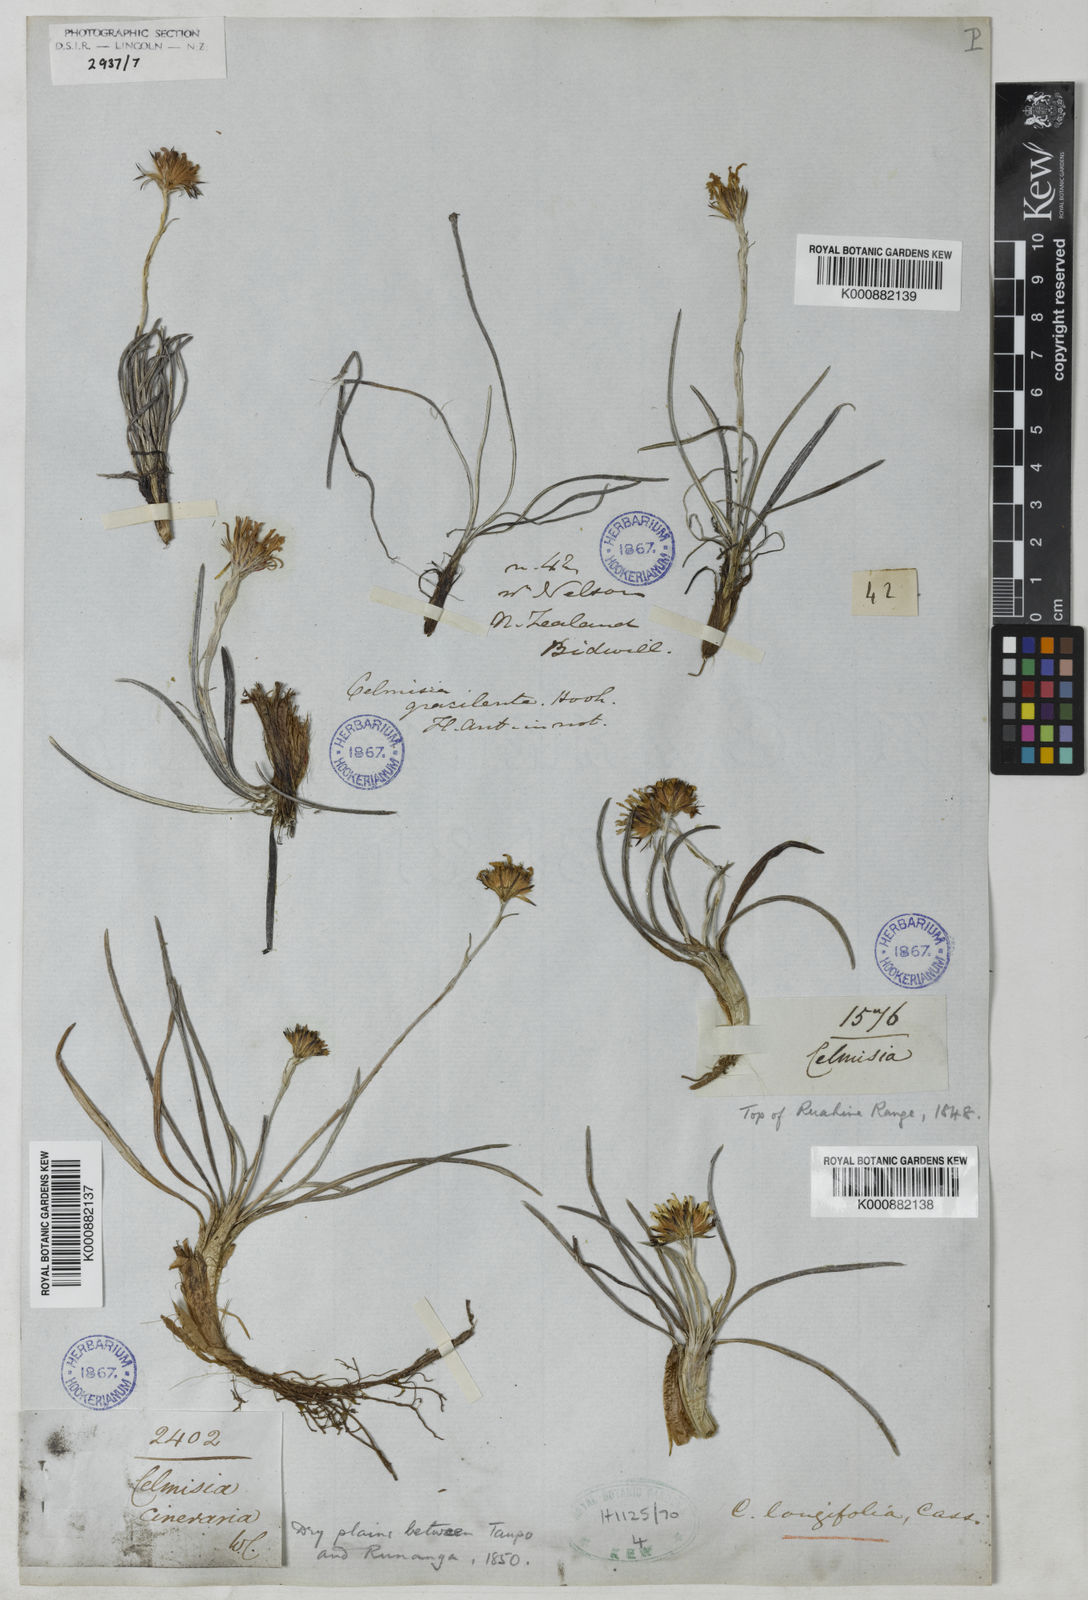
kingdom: Plantae
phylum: Tracheophyta
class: Magnoliopsida
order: Asterales
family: Asteraceae
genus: Celmisia
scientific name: Celmisia graminifolia
